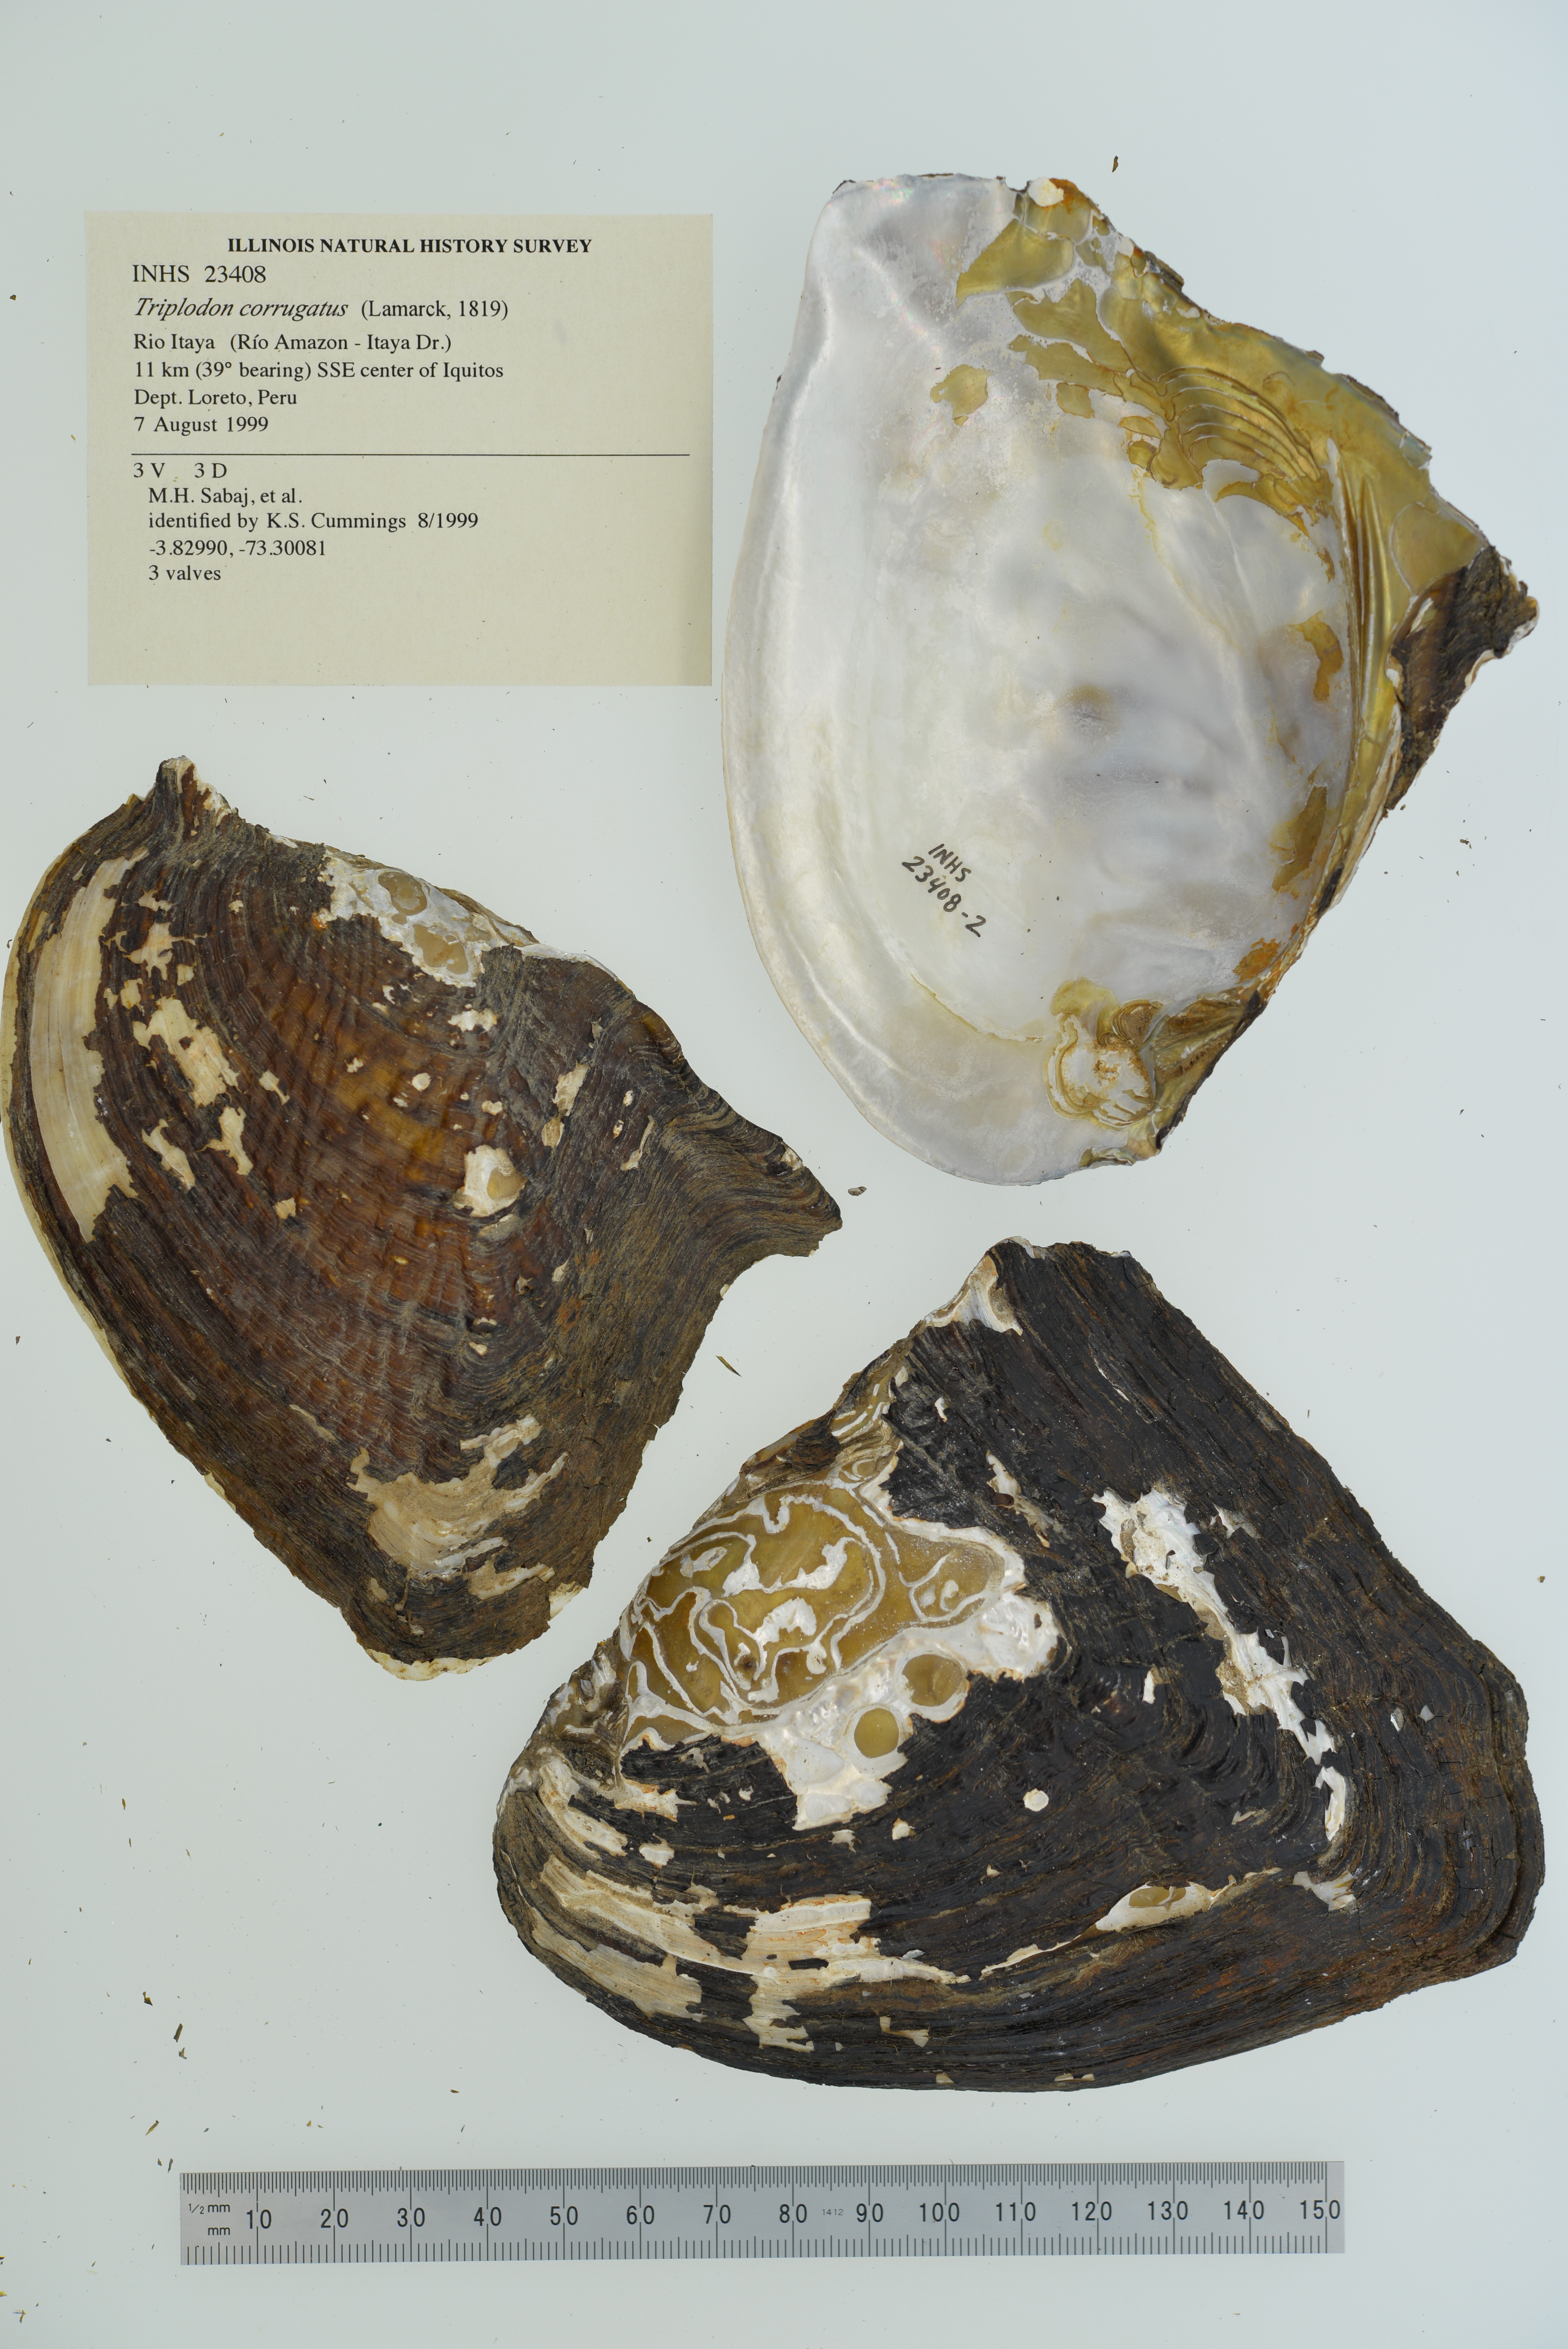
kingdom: Animalia
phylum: Mollusca
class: Bivalvia
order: Unionida
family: Hyriidae
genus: Triplodon
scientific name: Triplodon corrugatus
